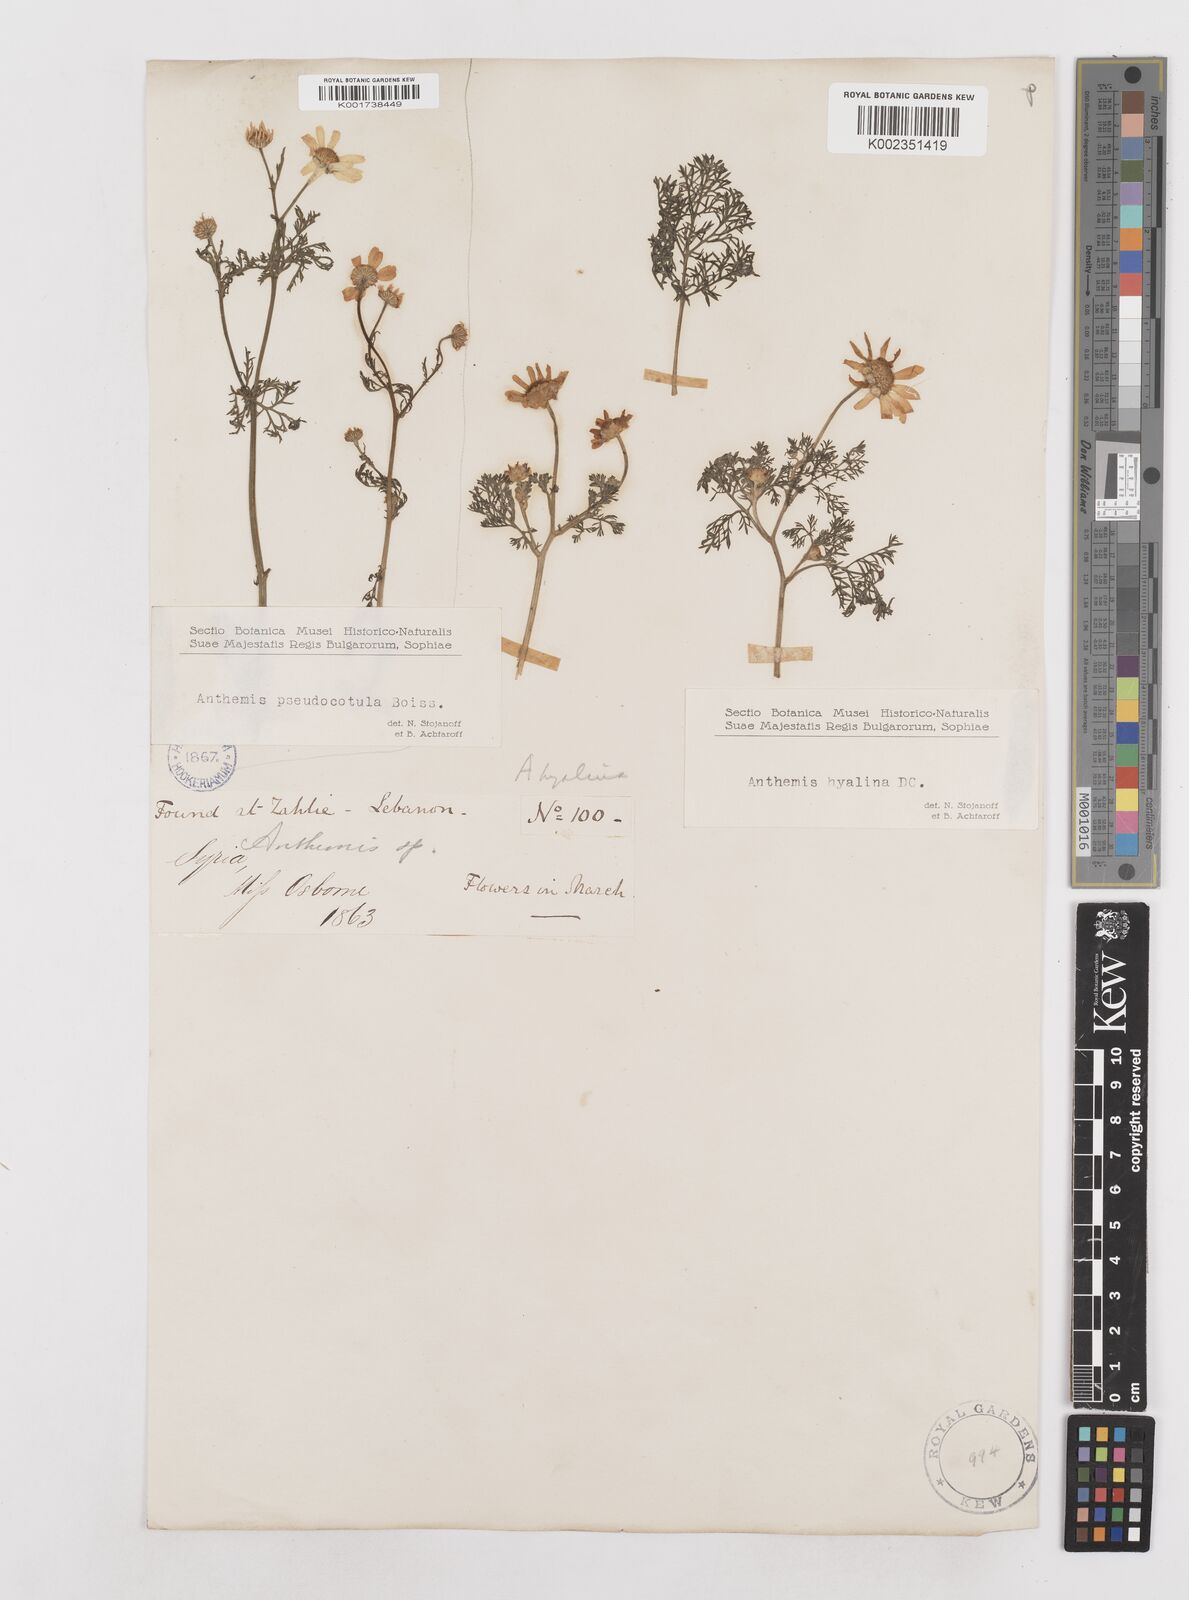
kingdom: Plantae
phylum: Tracheophyta
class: Magnoliopsida
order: Asterales
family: Asteraceae
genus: Anthemis
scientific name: Anthemis hyalina
